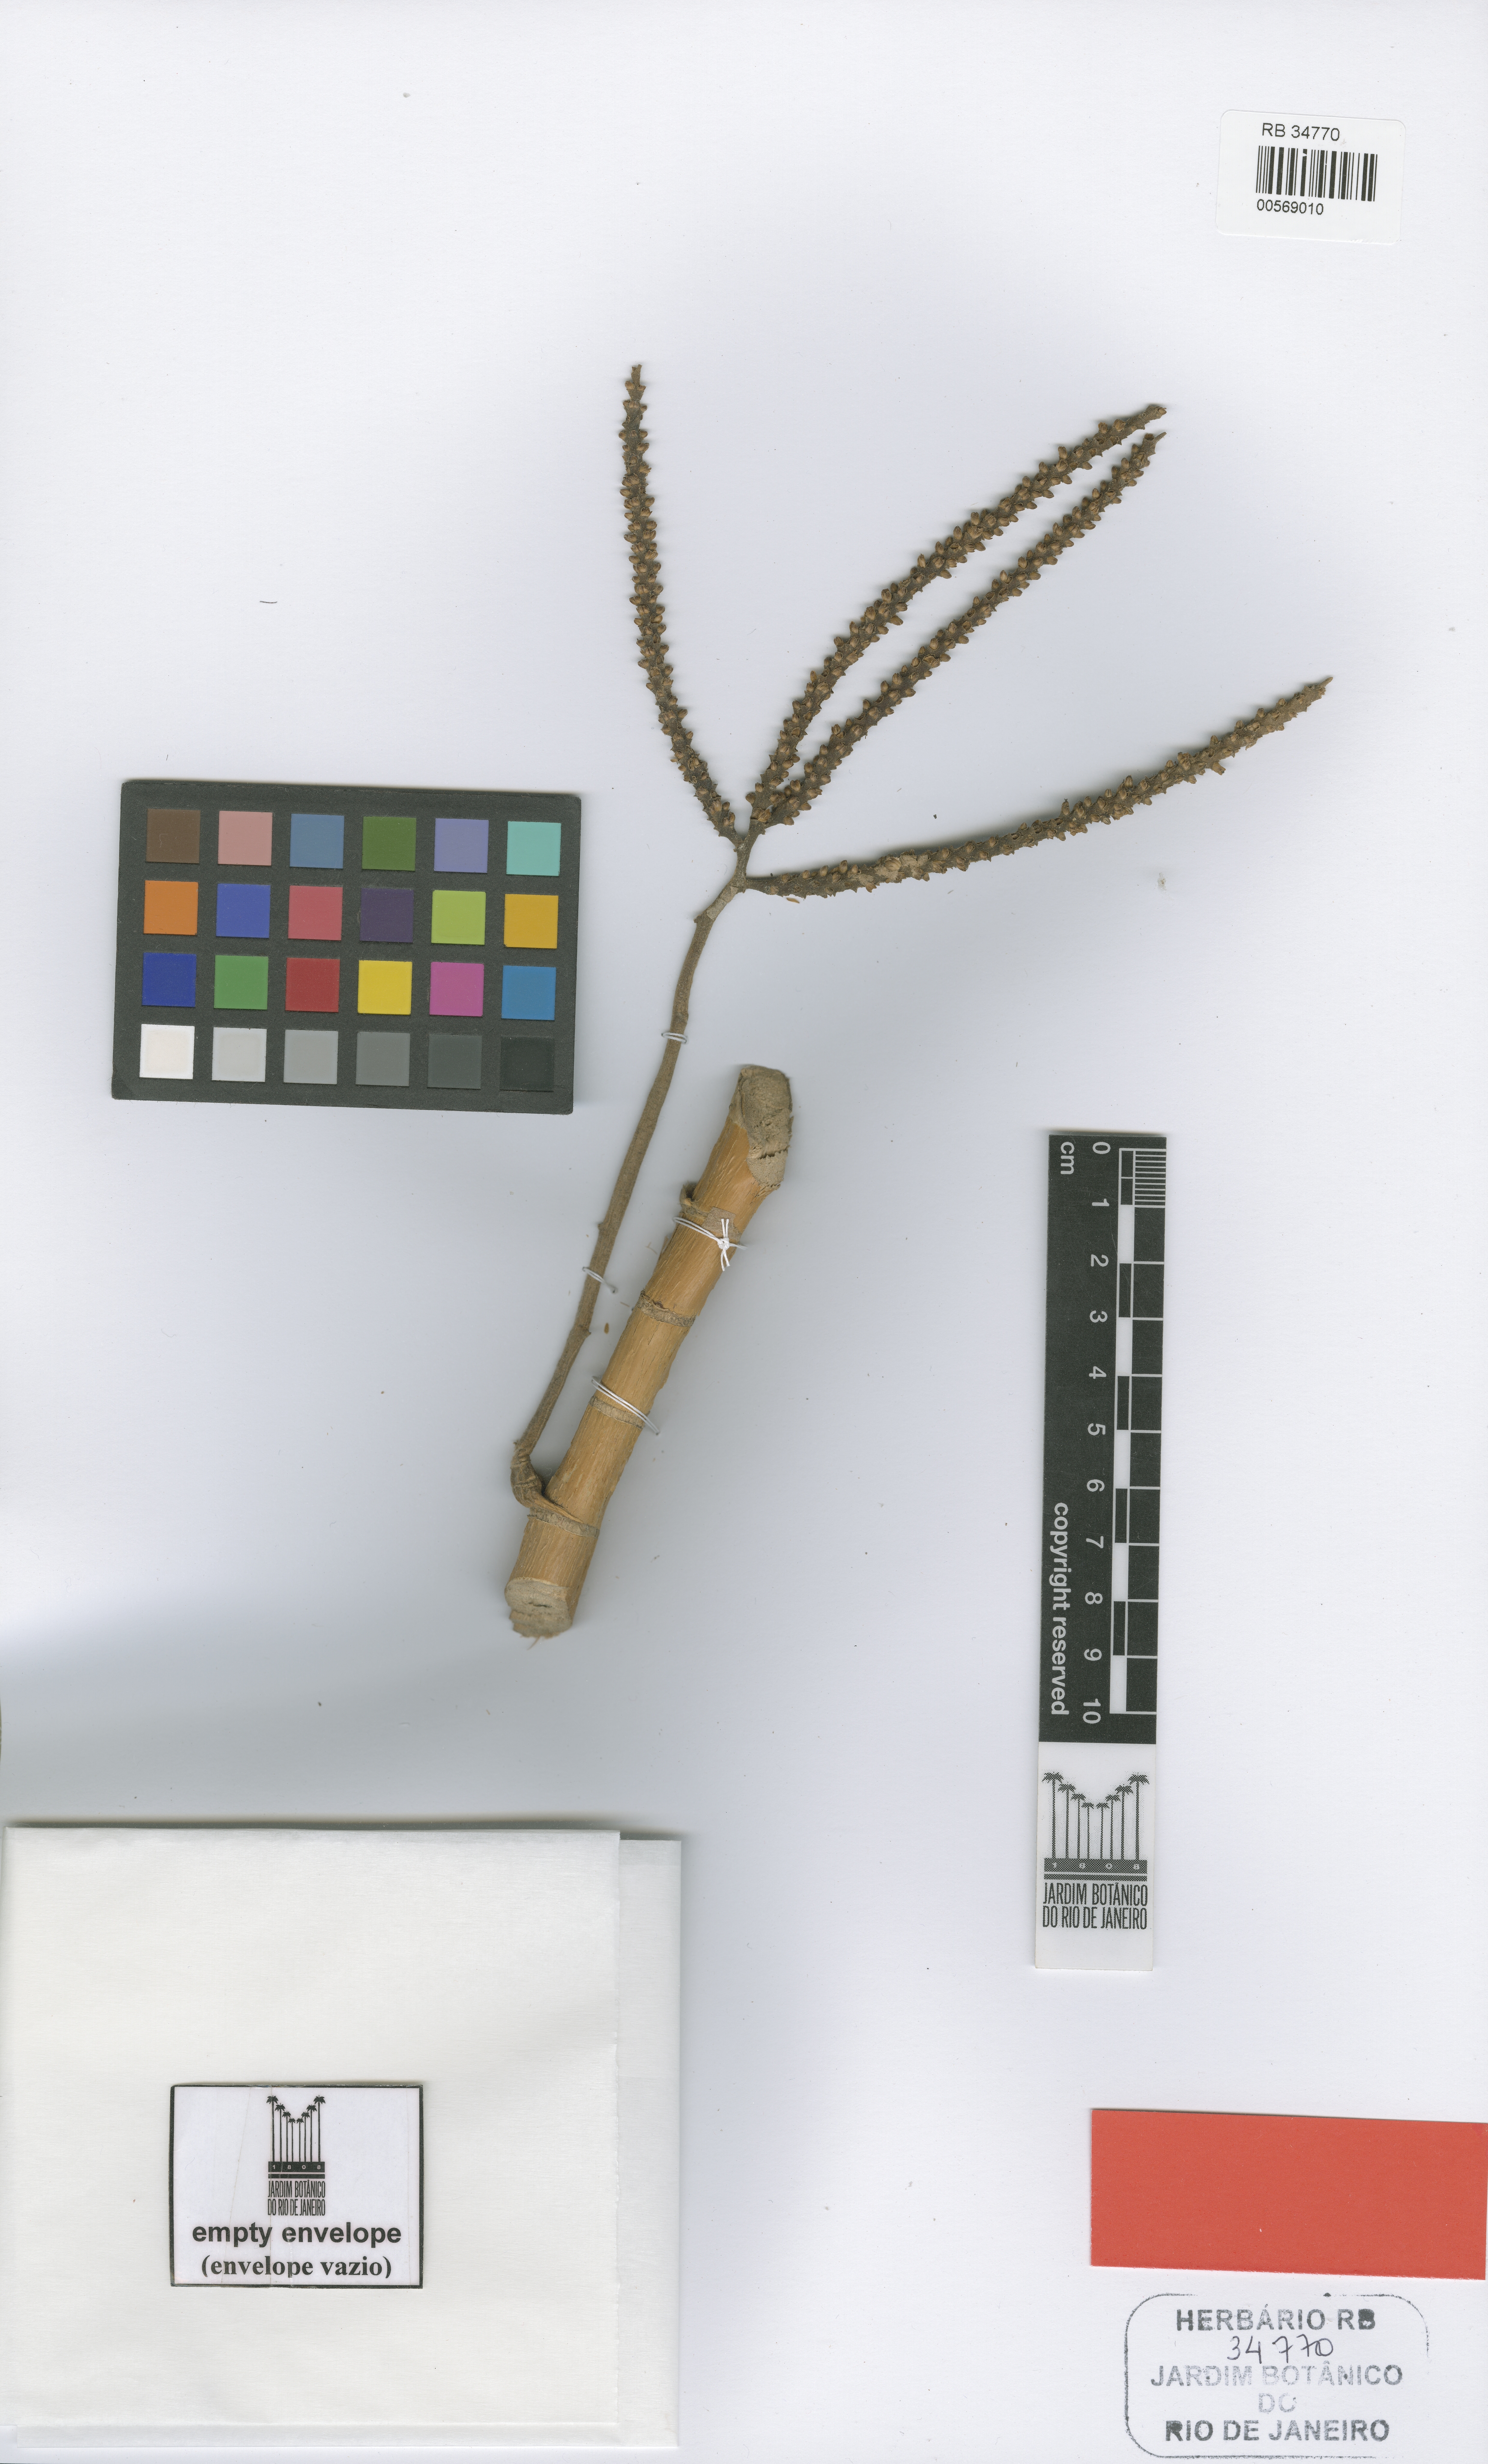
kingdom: Plantae
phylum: Tracheophyta
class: Liliopsida
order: Arecales
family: Arecaceae
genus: Geonoma
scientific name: Geonoma pohliana
